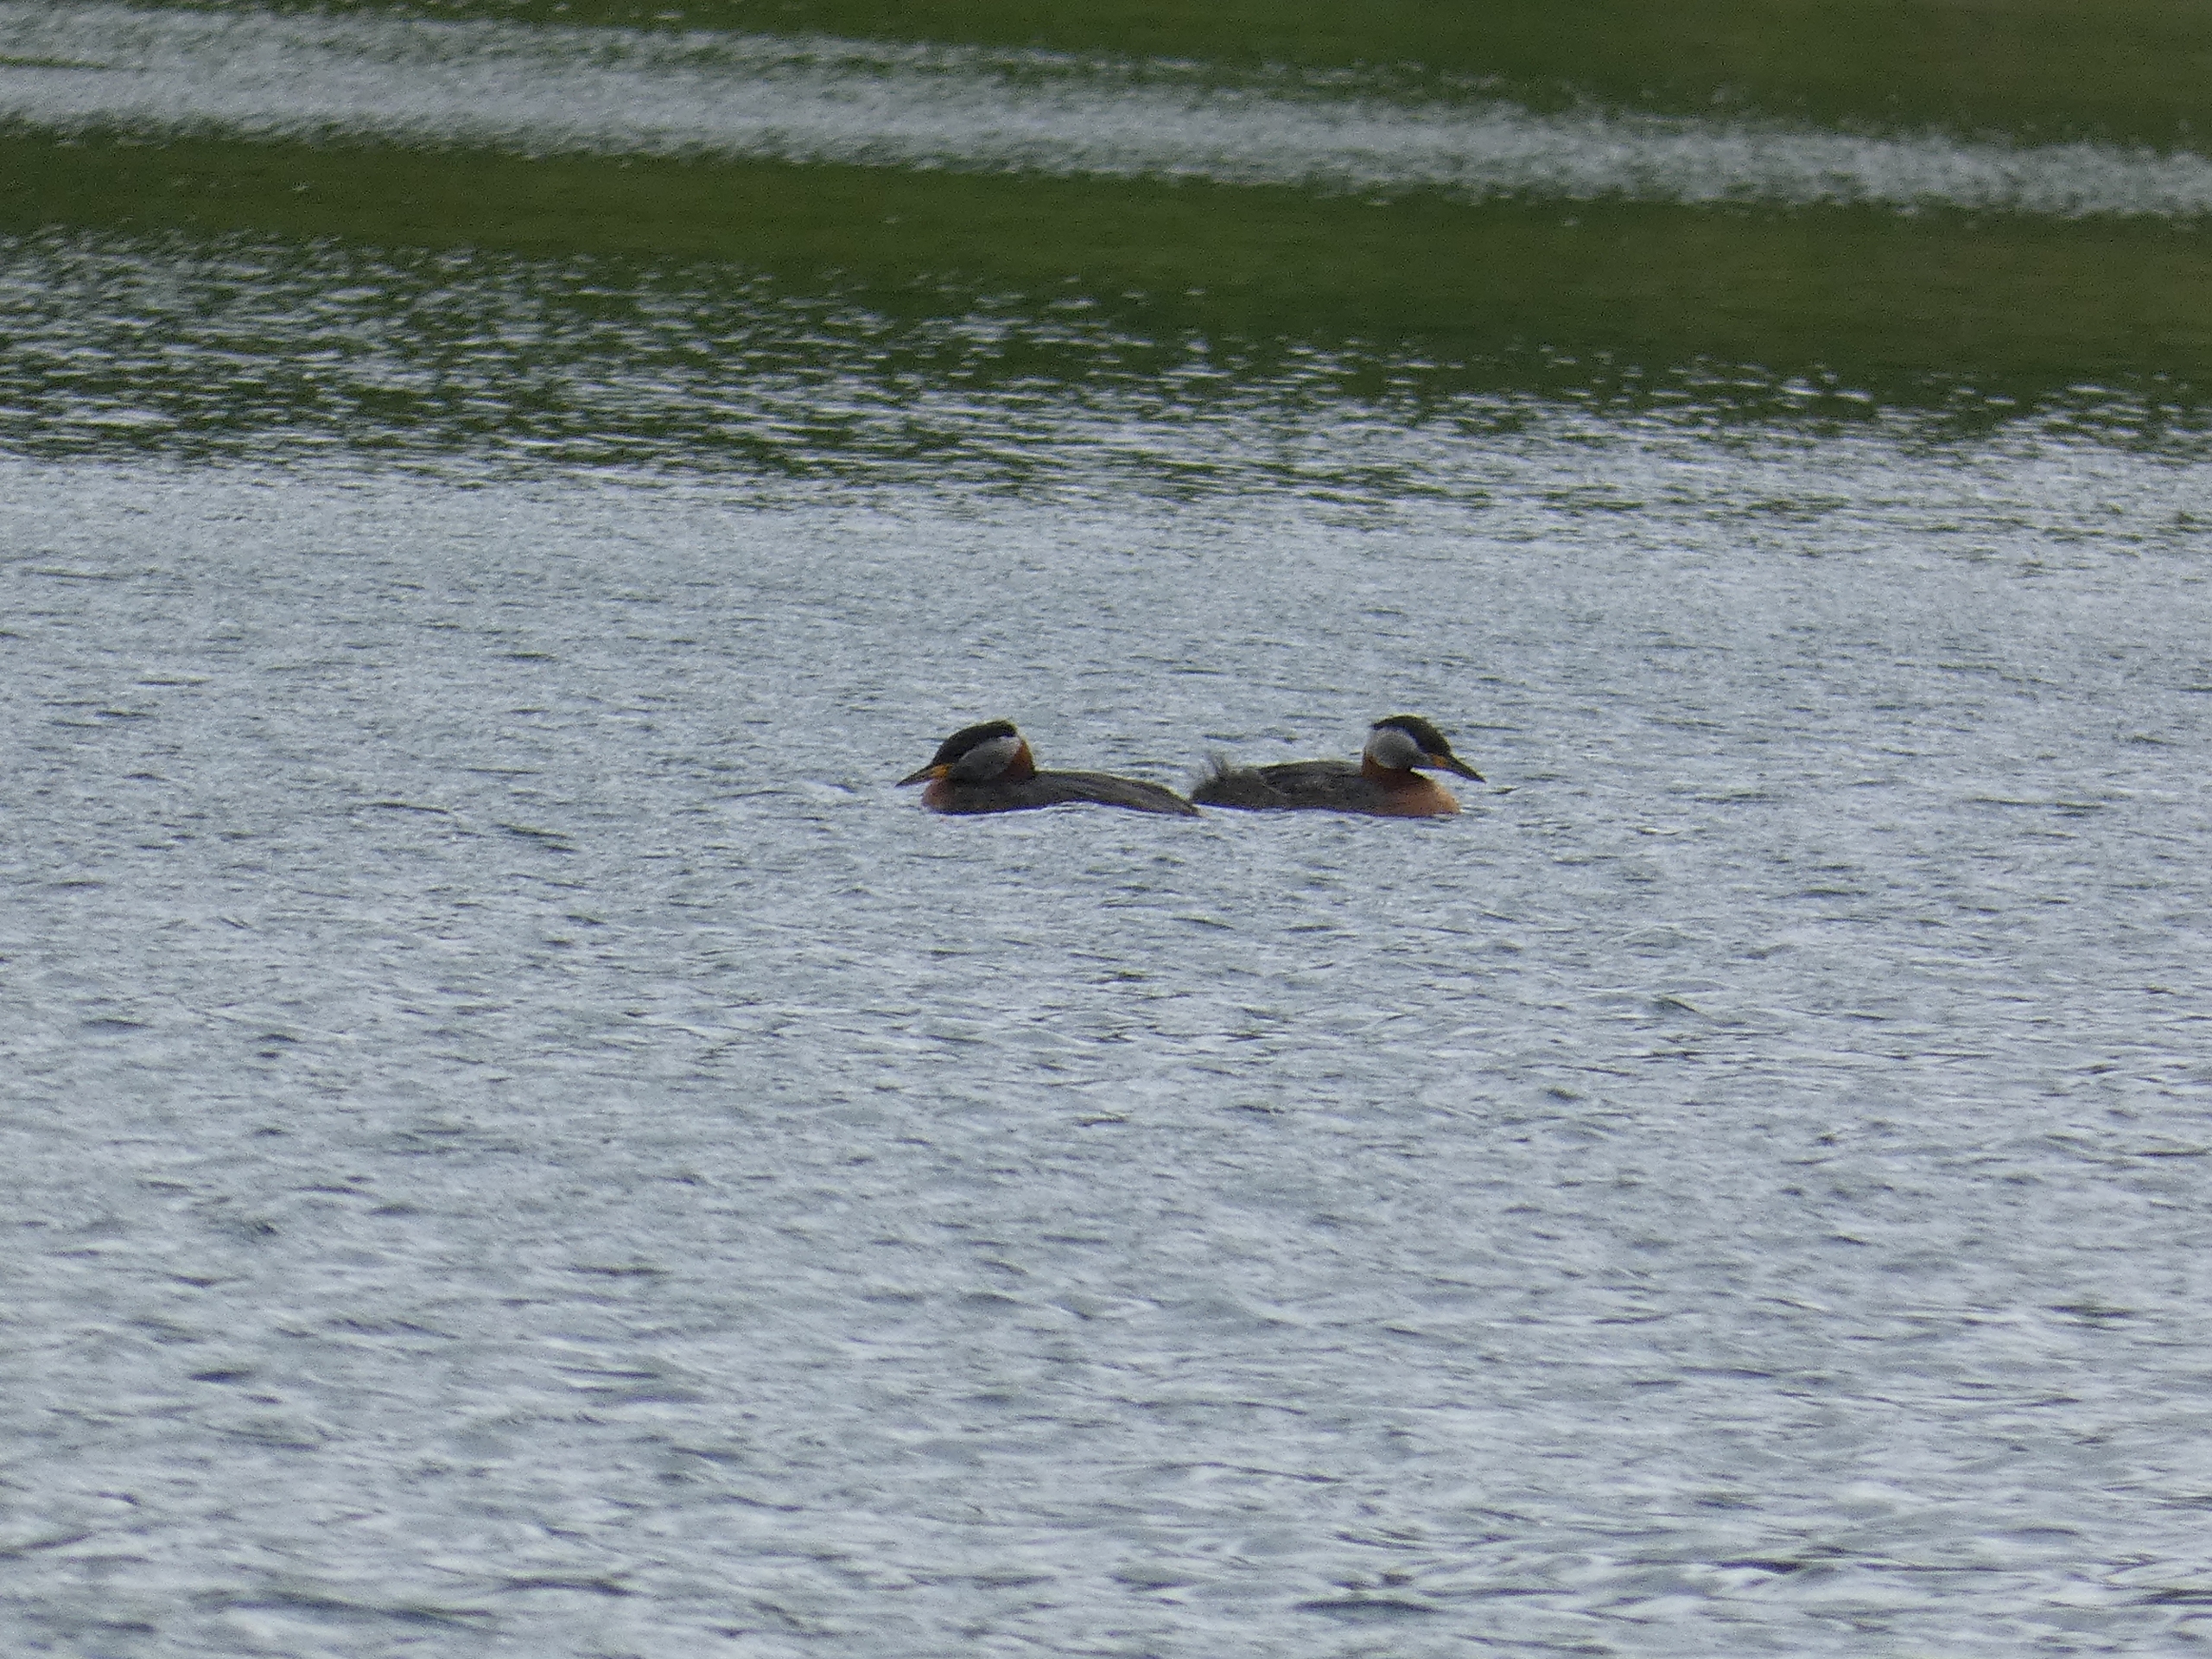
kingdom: Animalia
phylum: Chordata
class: Aves
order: Podicipediformes
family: Podicipedidae
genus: Podiceps
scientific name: Podiceps grisegena
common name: Gråstrubet lappedykker
